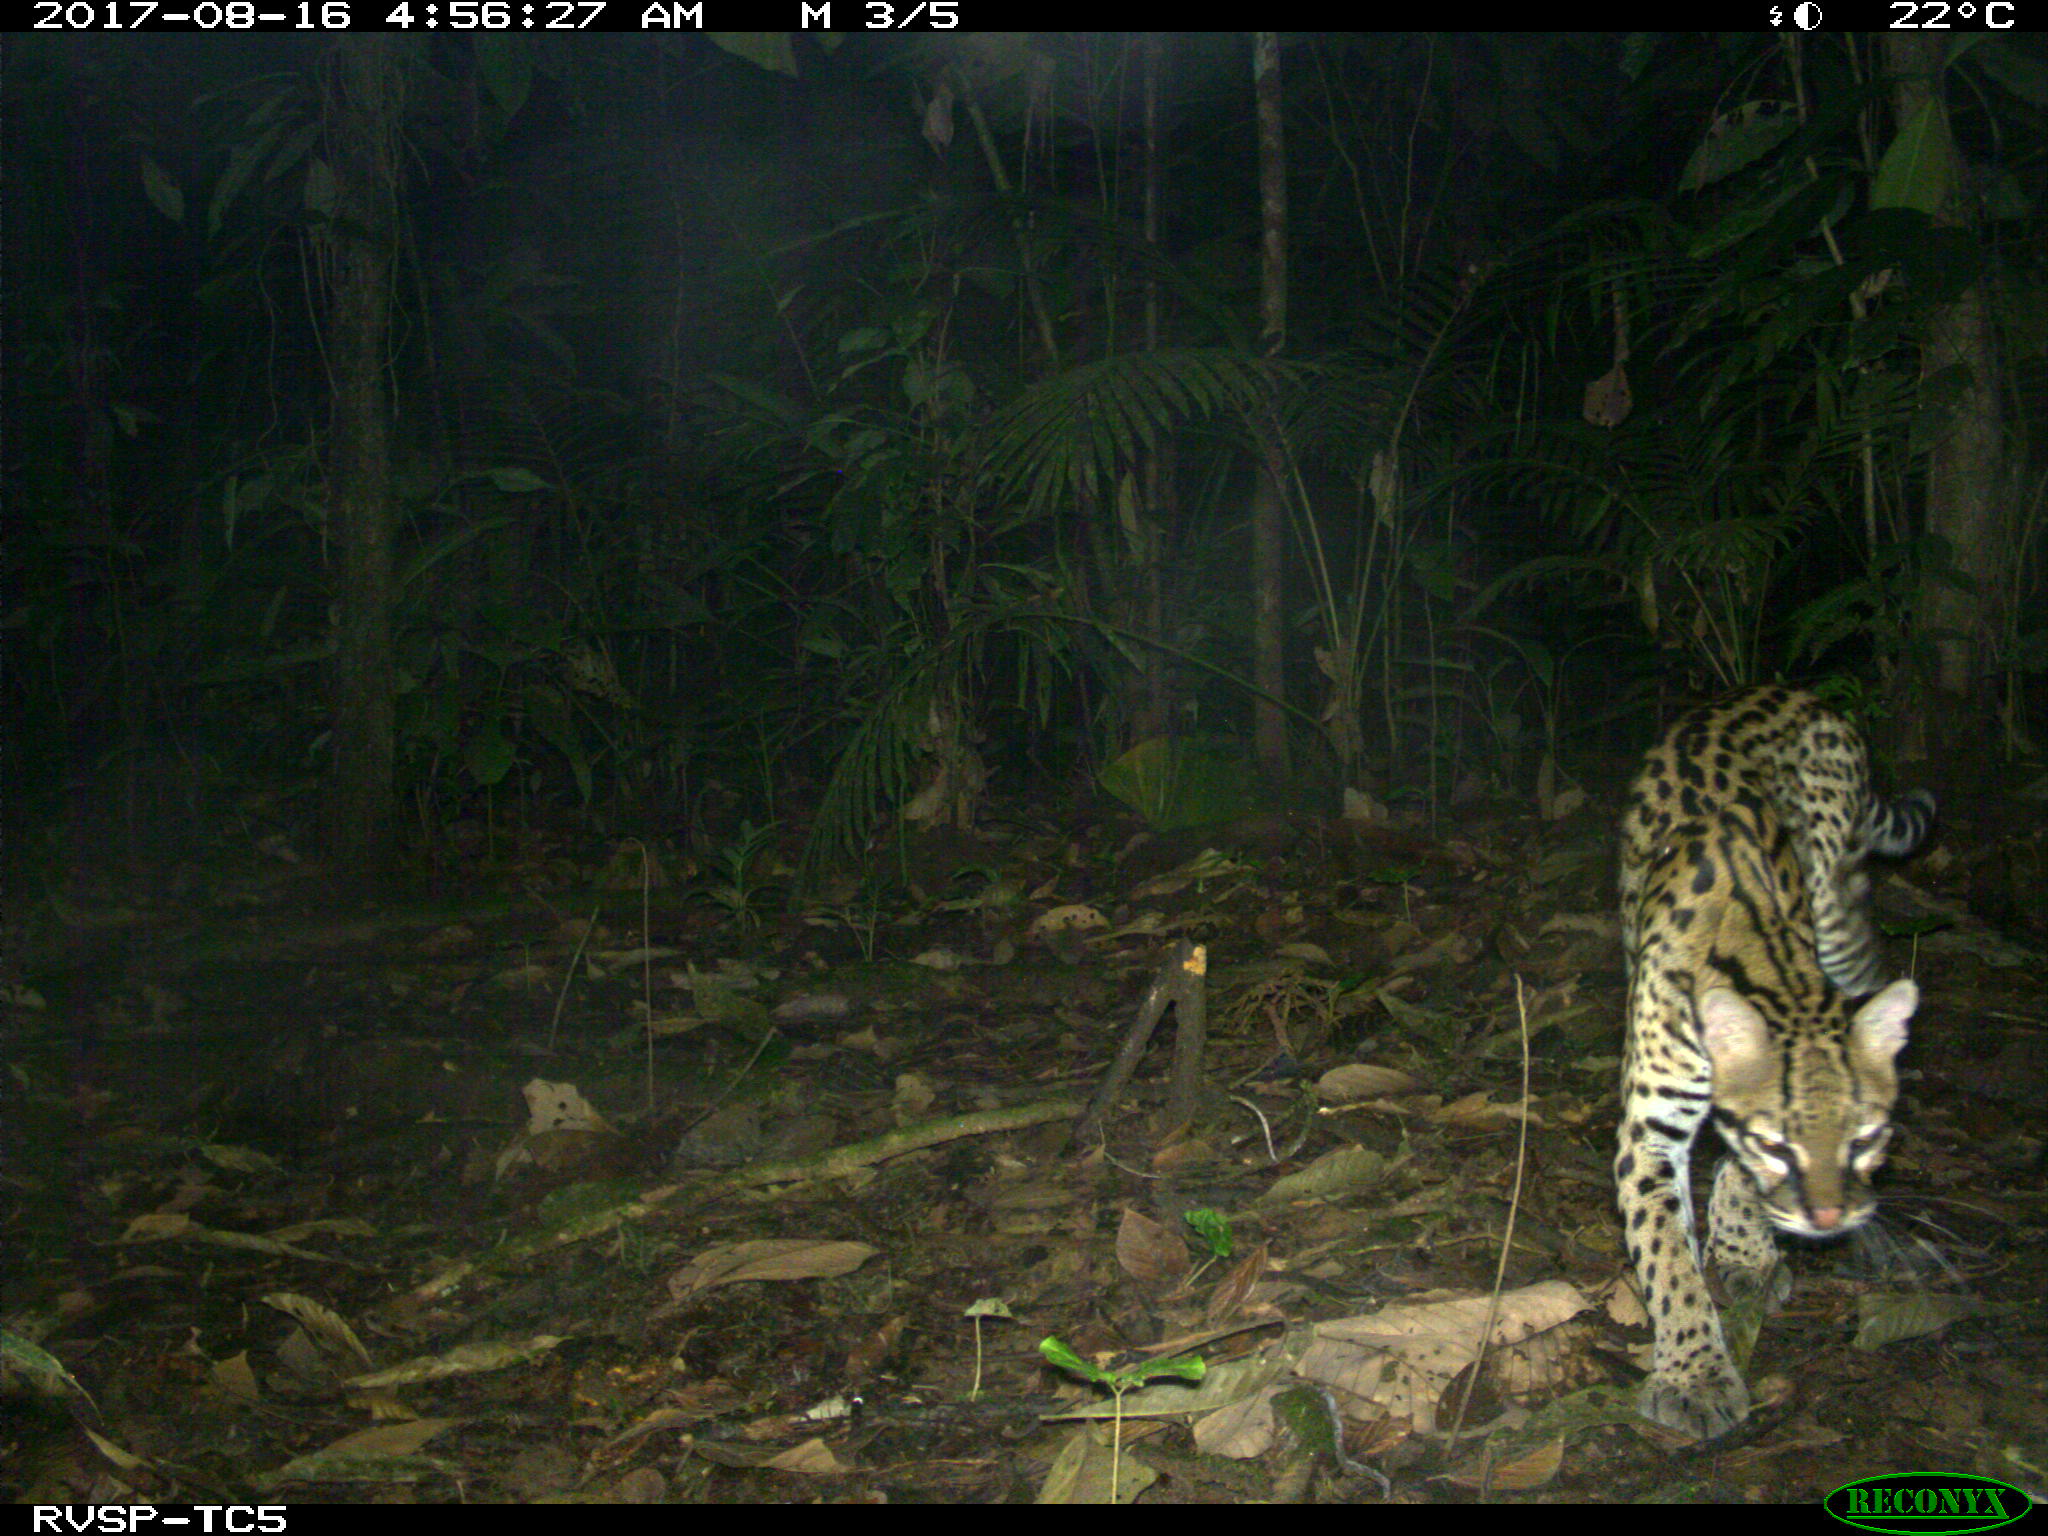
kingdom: Animalia
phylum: Chordata
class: Mammalia
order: Carnivora
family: Felidae
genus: Leopardus
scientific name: Leopardus pardalis
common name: Ocelot
